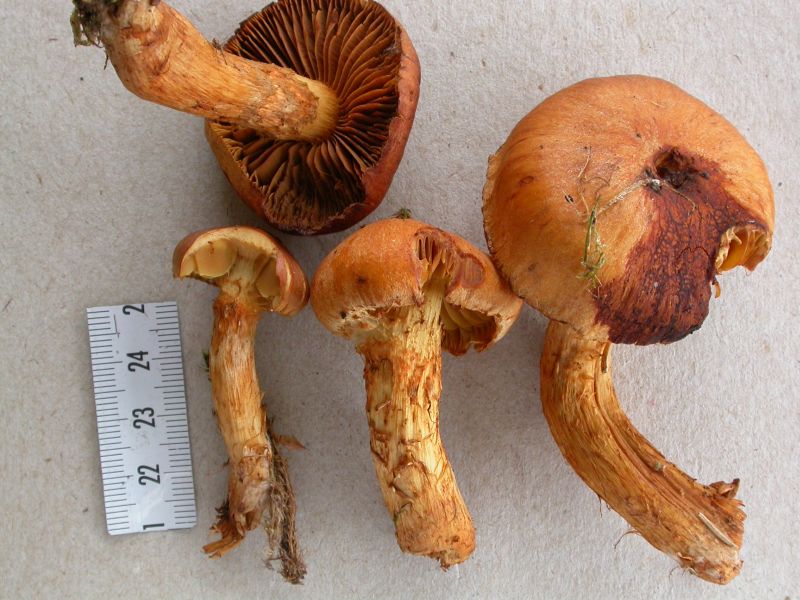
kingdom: Fungi
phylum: Basidiomycota
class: Agaricomycetes
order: Agaricales
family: Cortinariaceae
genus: Aureonarius
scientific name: Aureonarius limonius
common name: orangegul slørhat
